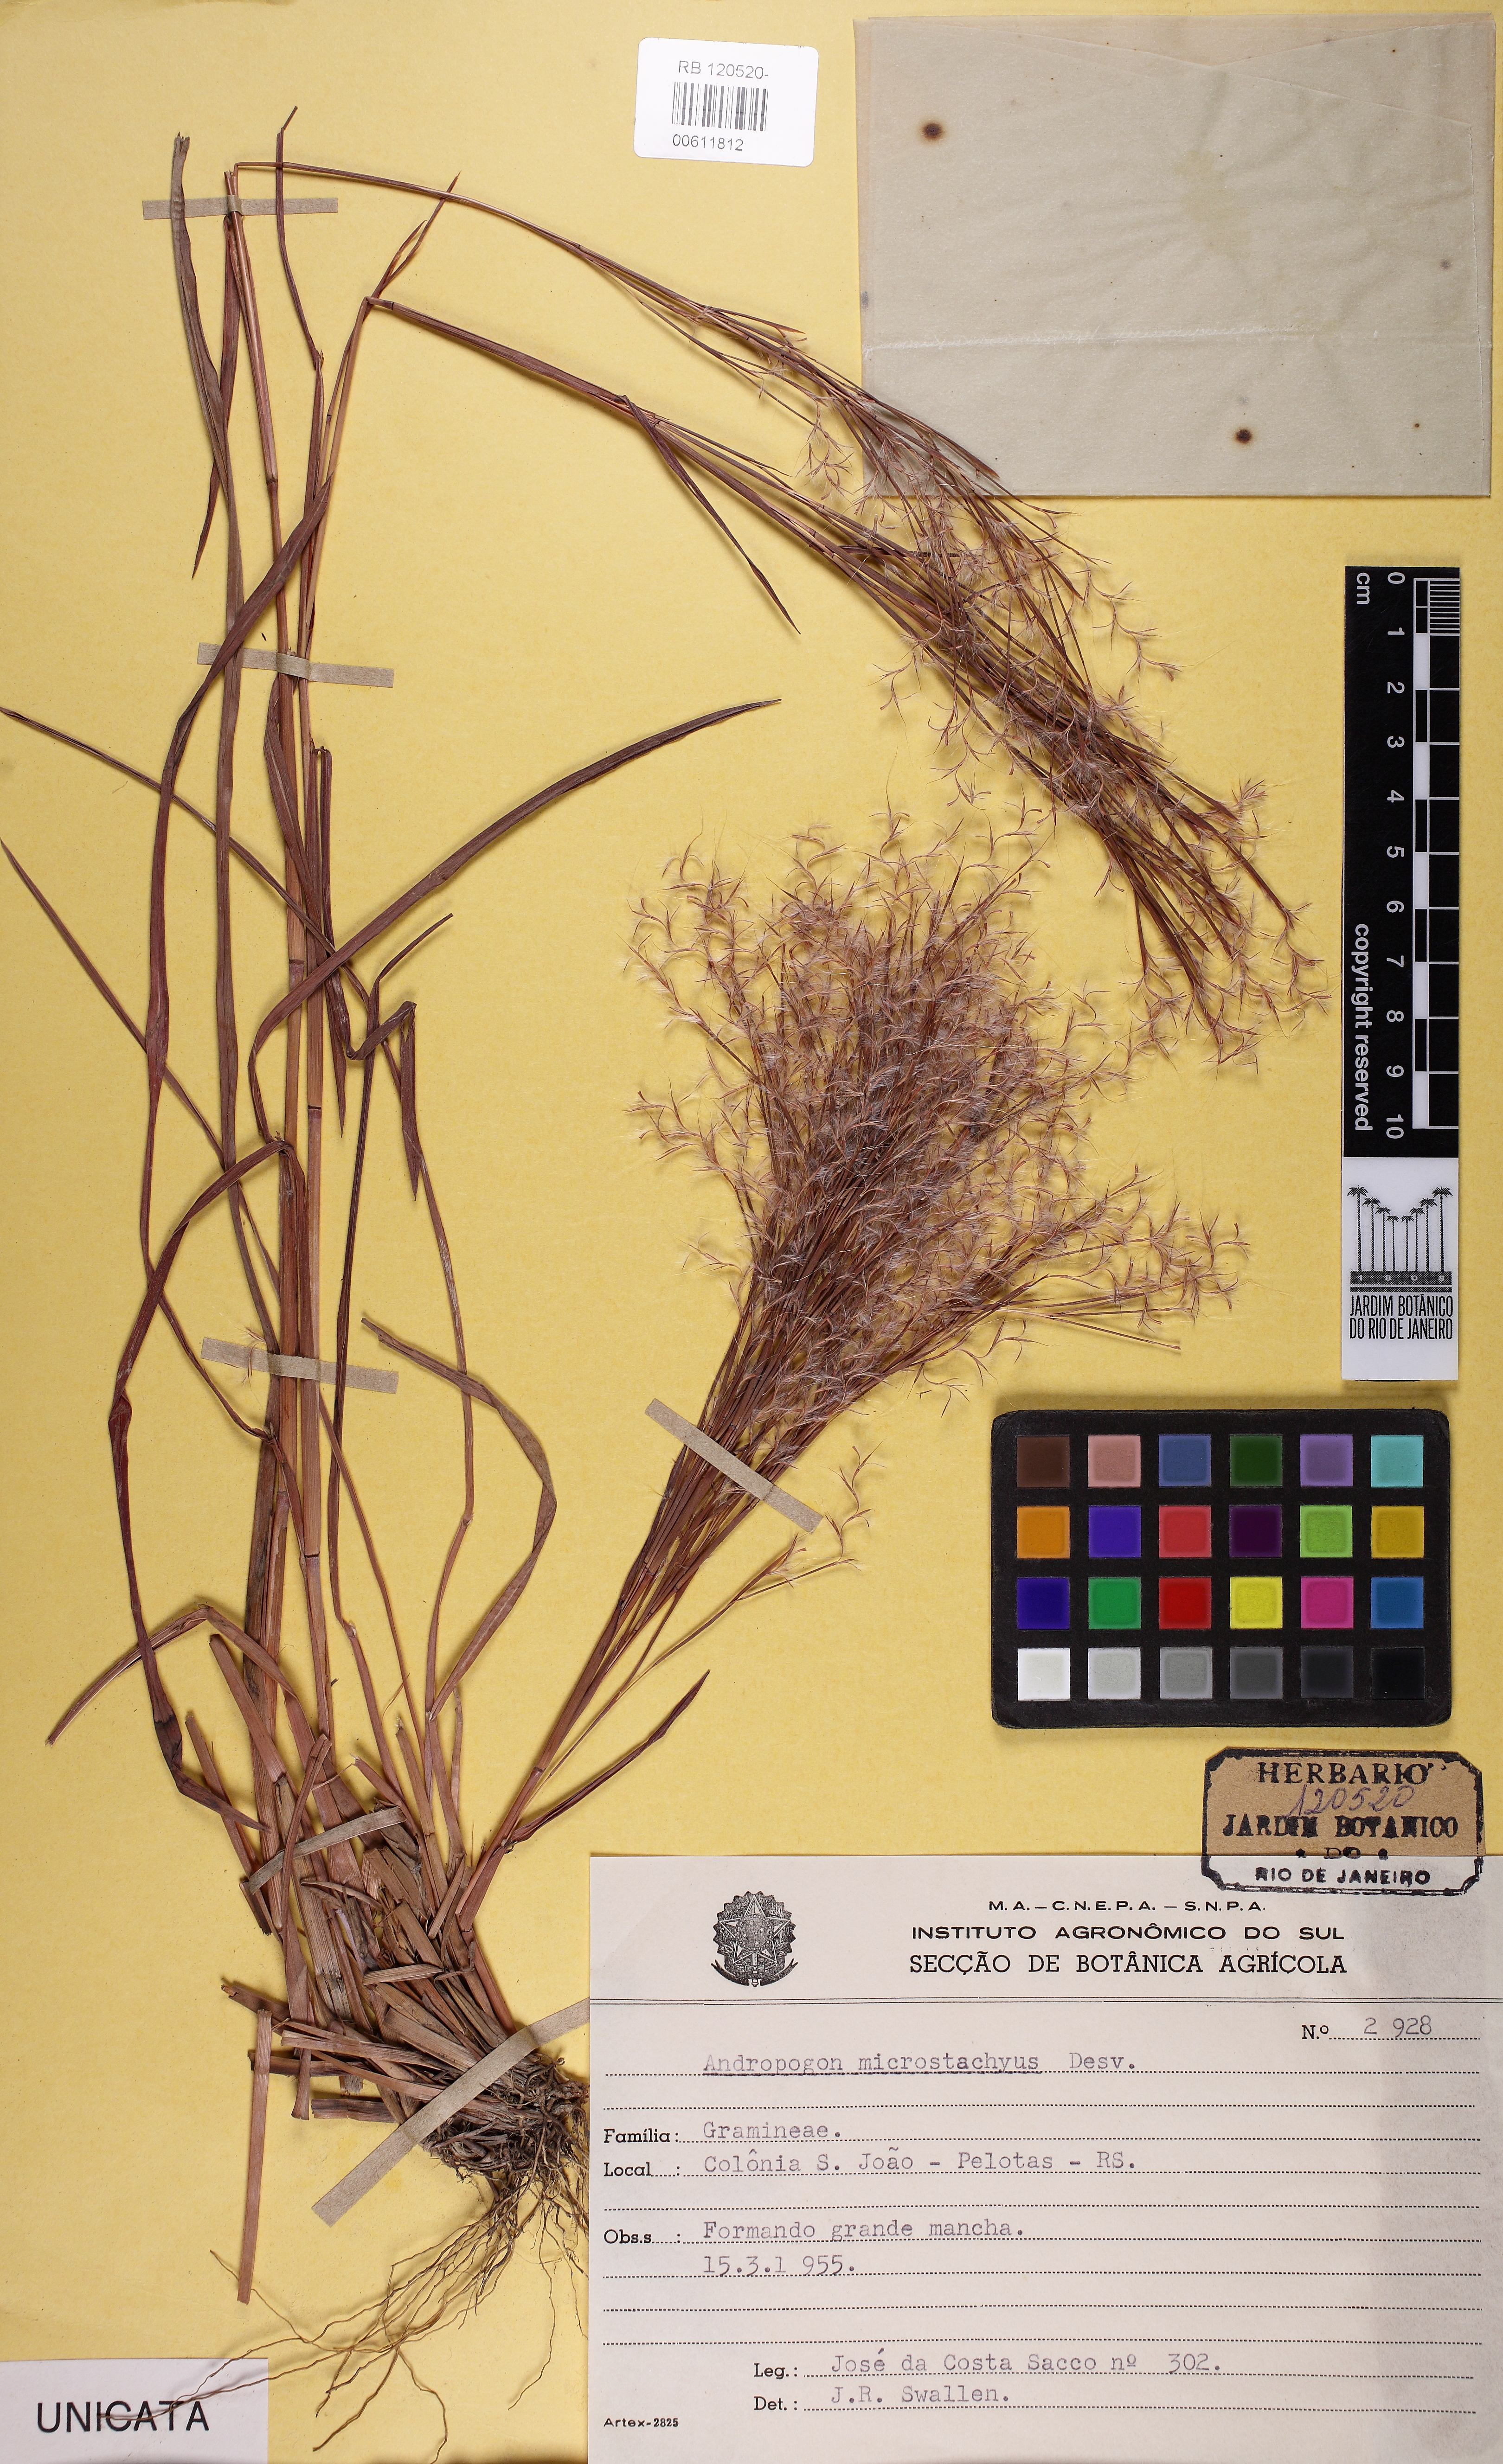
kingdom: Plantae
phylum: Tracheophyta
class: Liliopsida
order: Poales
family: Poaceae
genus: Schizachyrium
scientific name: Schizachyrium microstachyum
